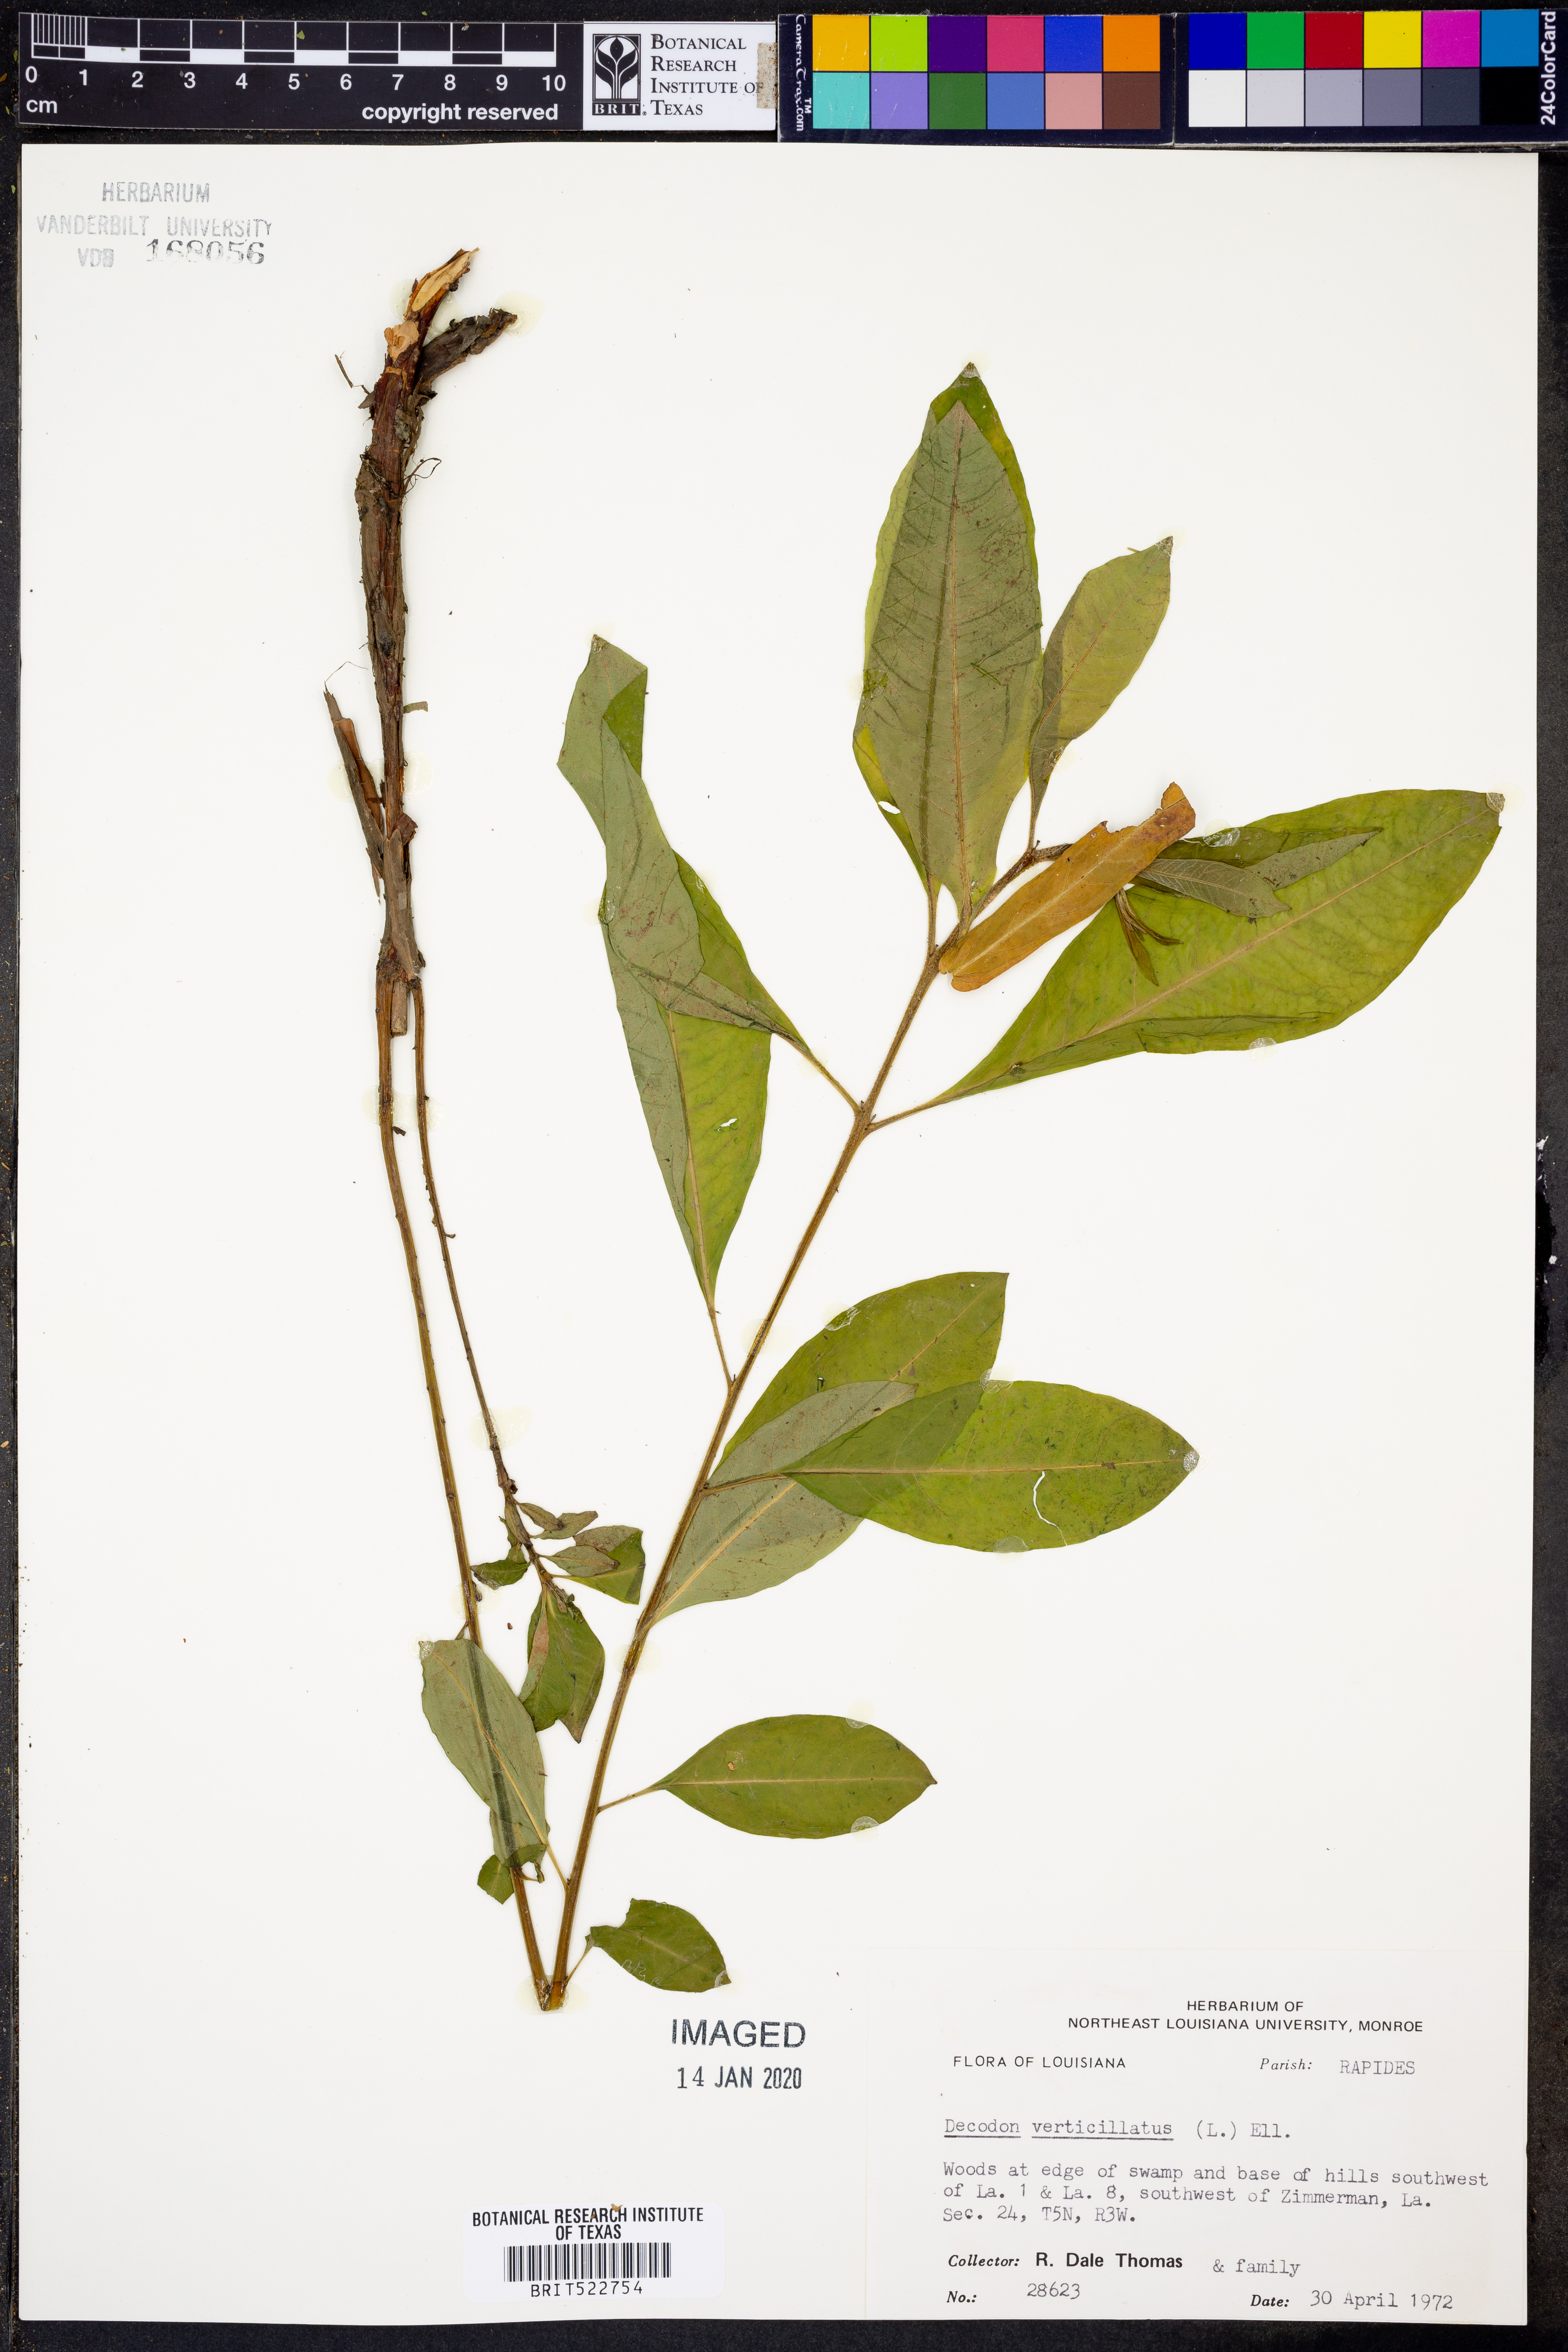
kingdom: Plantae
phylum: Tracheophyta
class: Magnoliopsida
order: Myrtales
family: Lythraceae
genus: Decodon
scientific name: Decodon verticillatus
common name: Hairy swamp loosestrife
